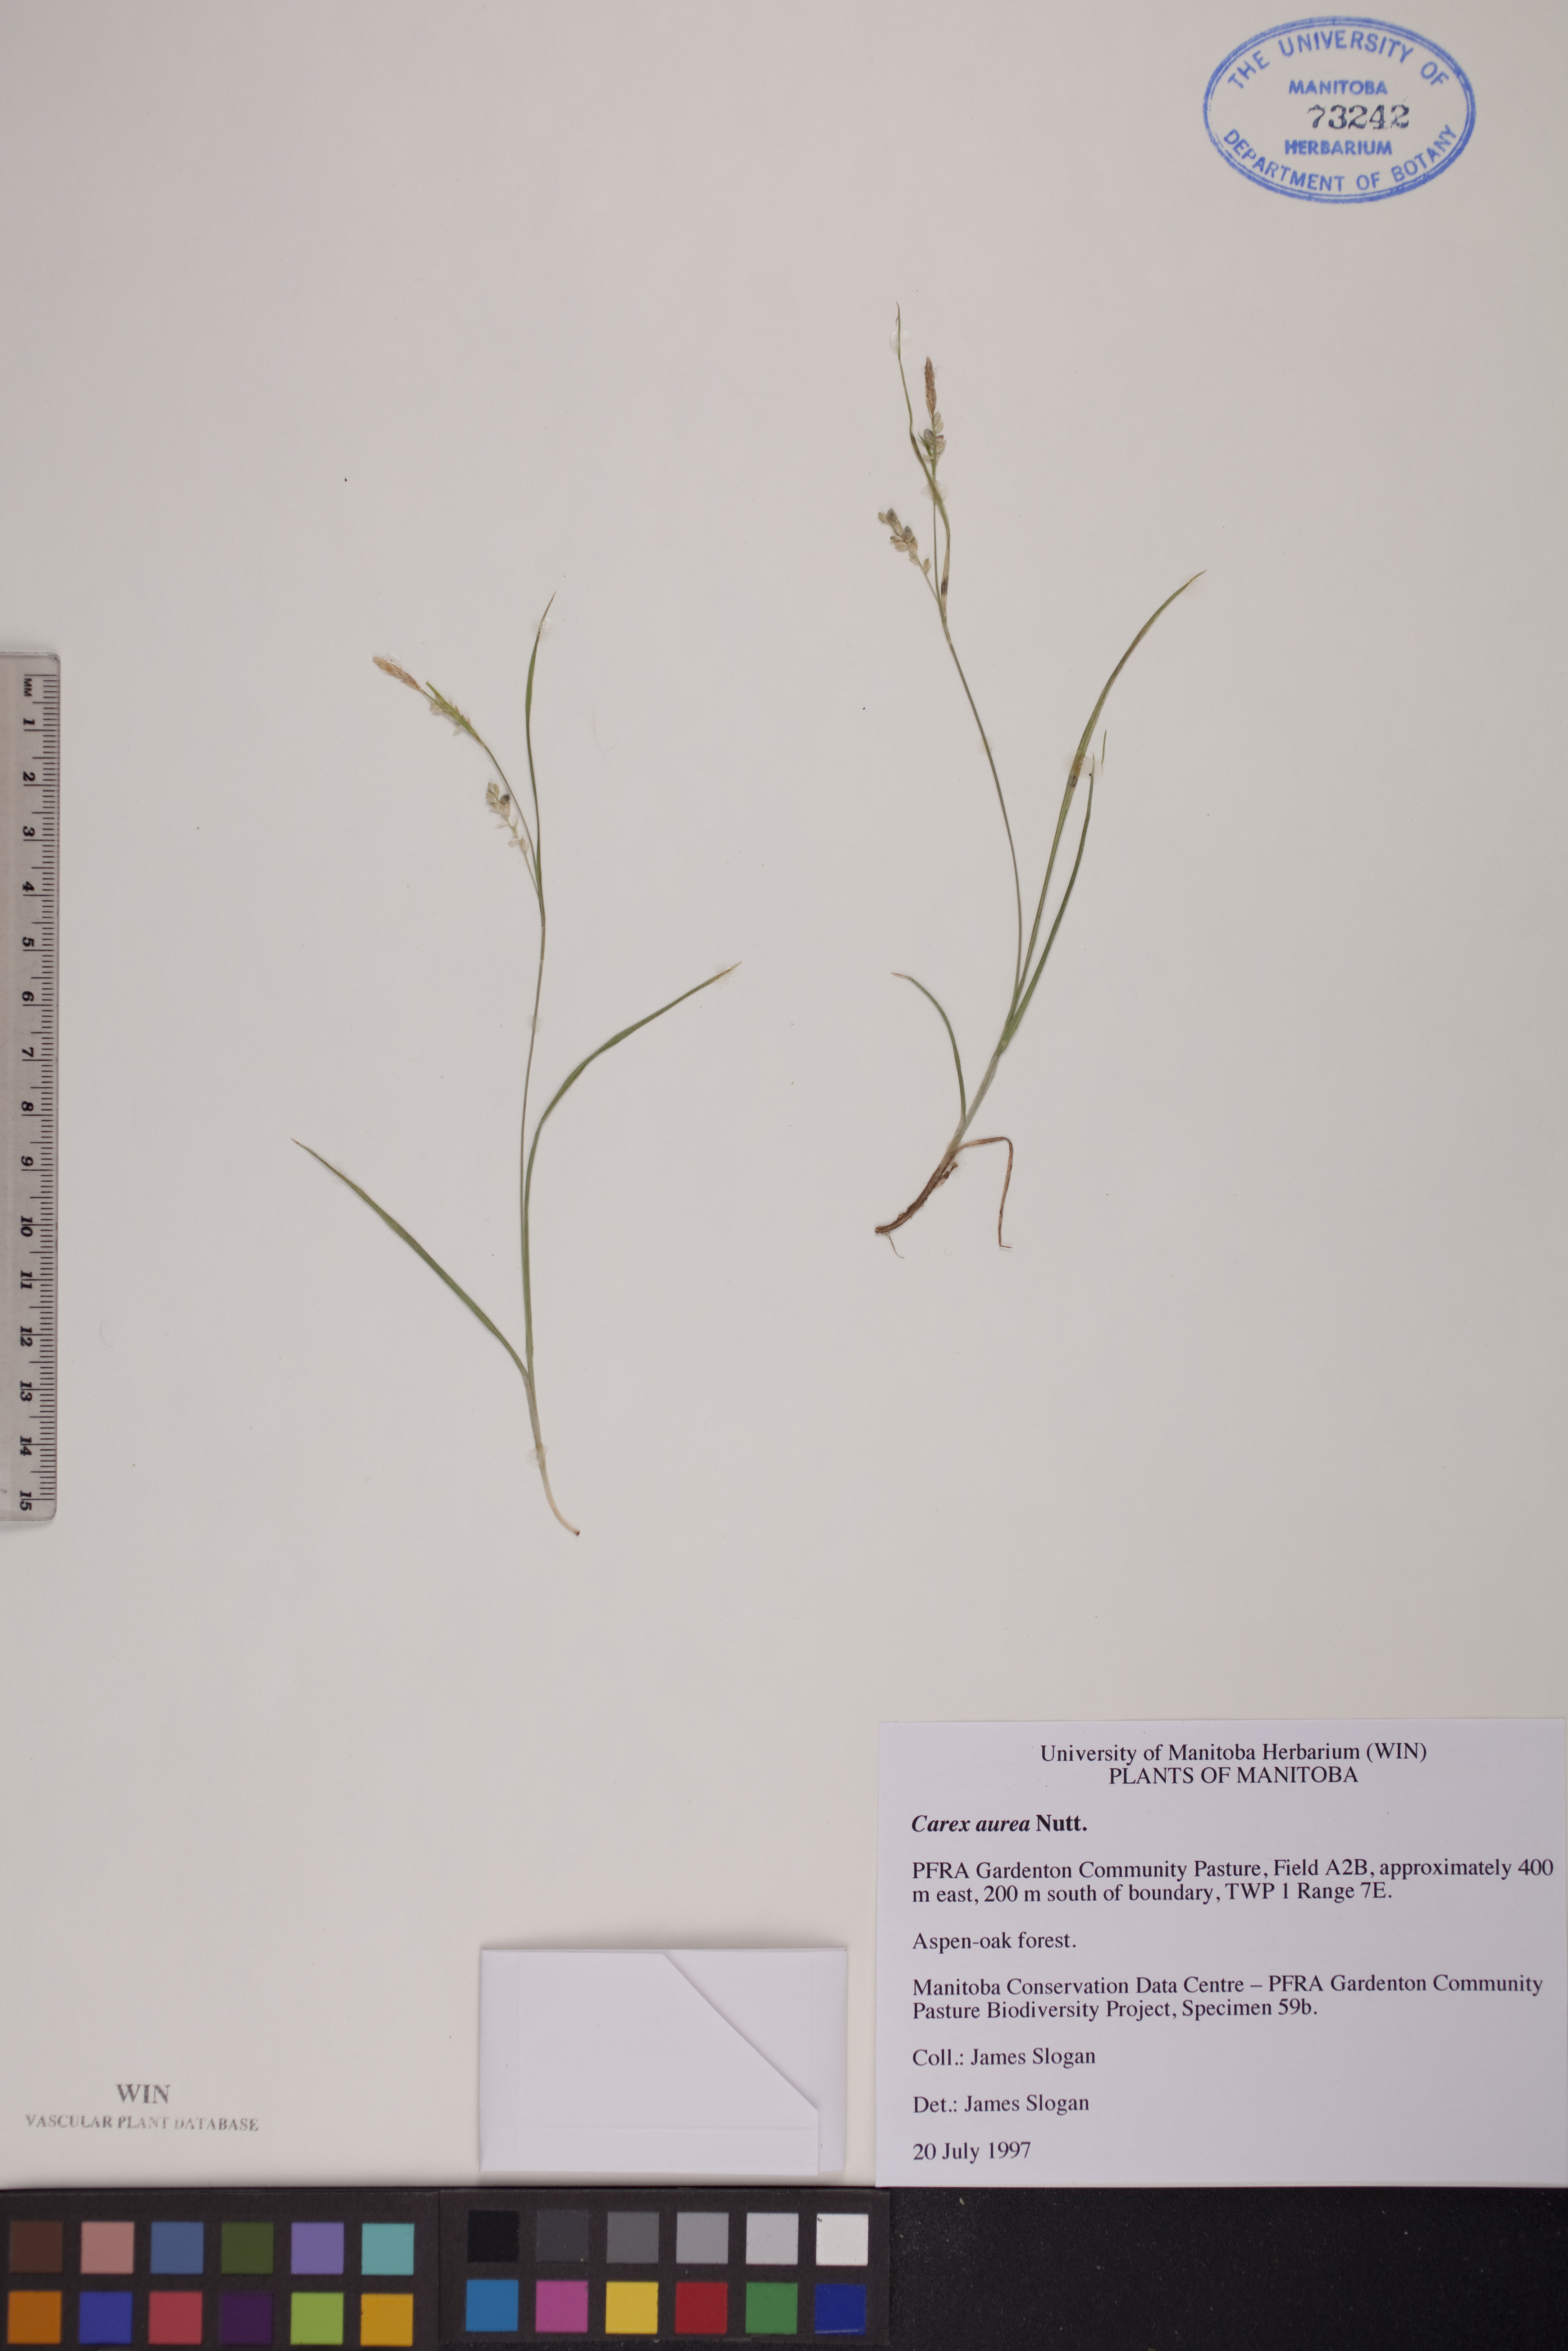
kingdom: Plantae
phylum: Tracheophyta
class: Liliopsida
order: Poales
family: Cyperaceae
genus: Carex
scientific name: Carex aurea
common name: Golden sedge
